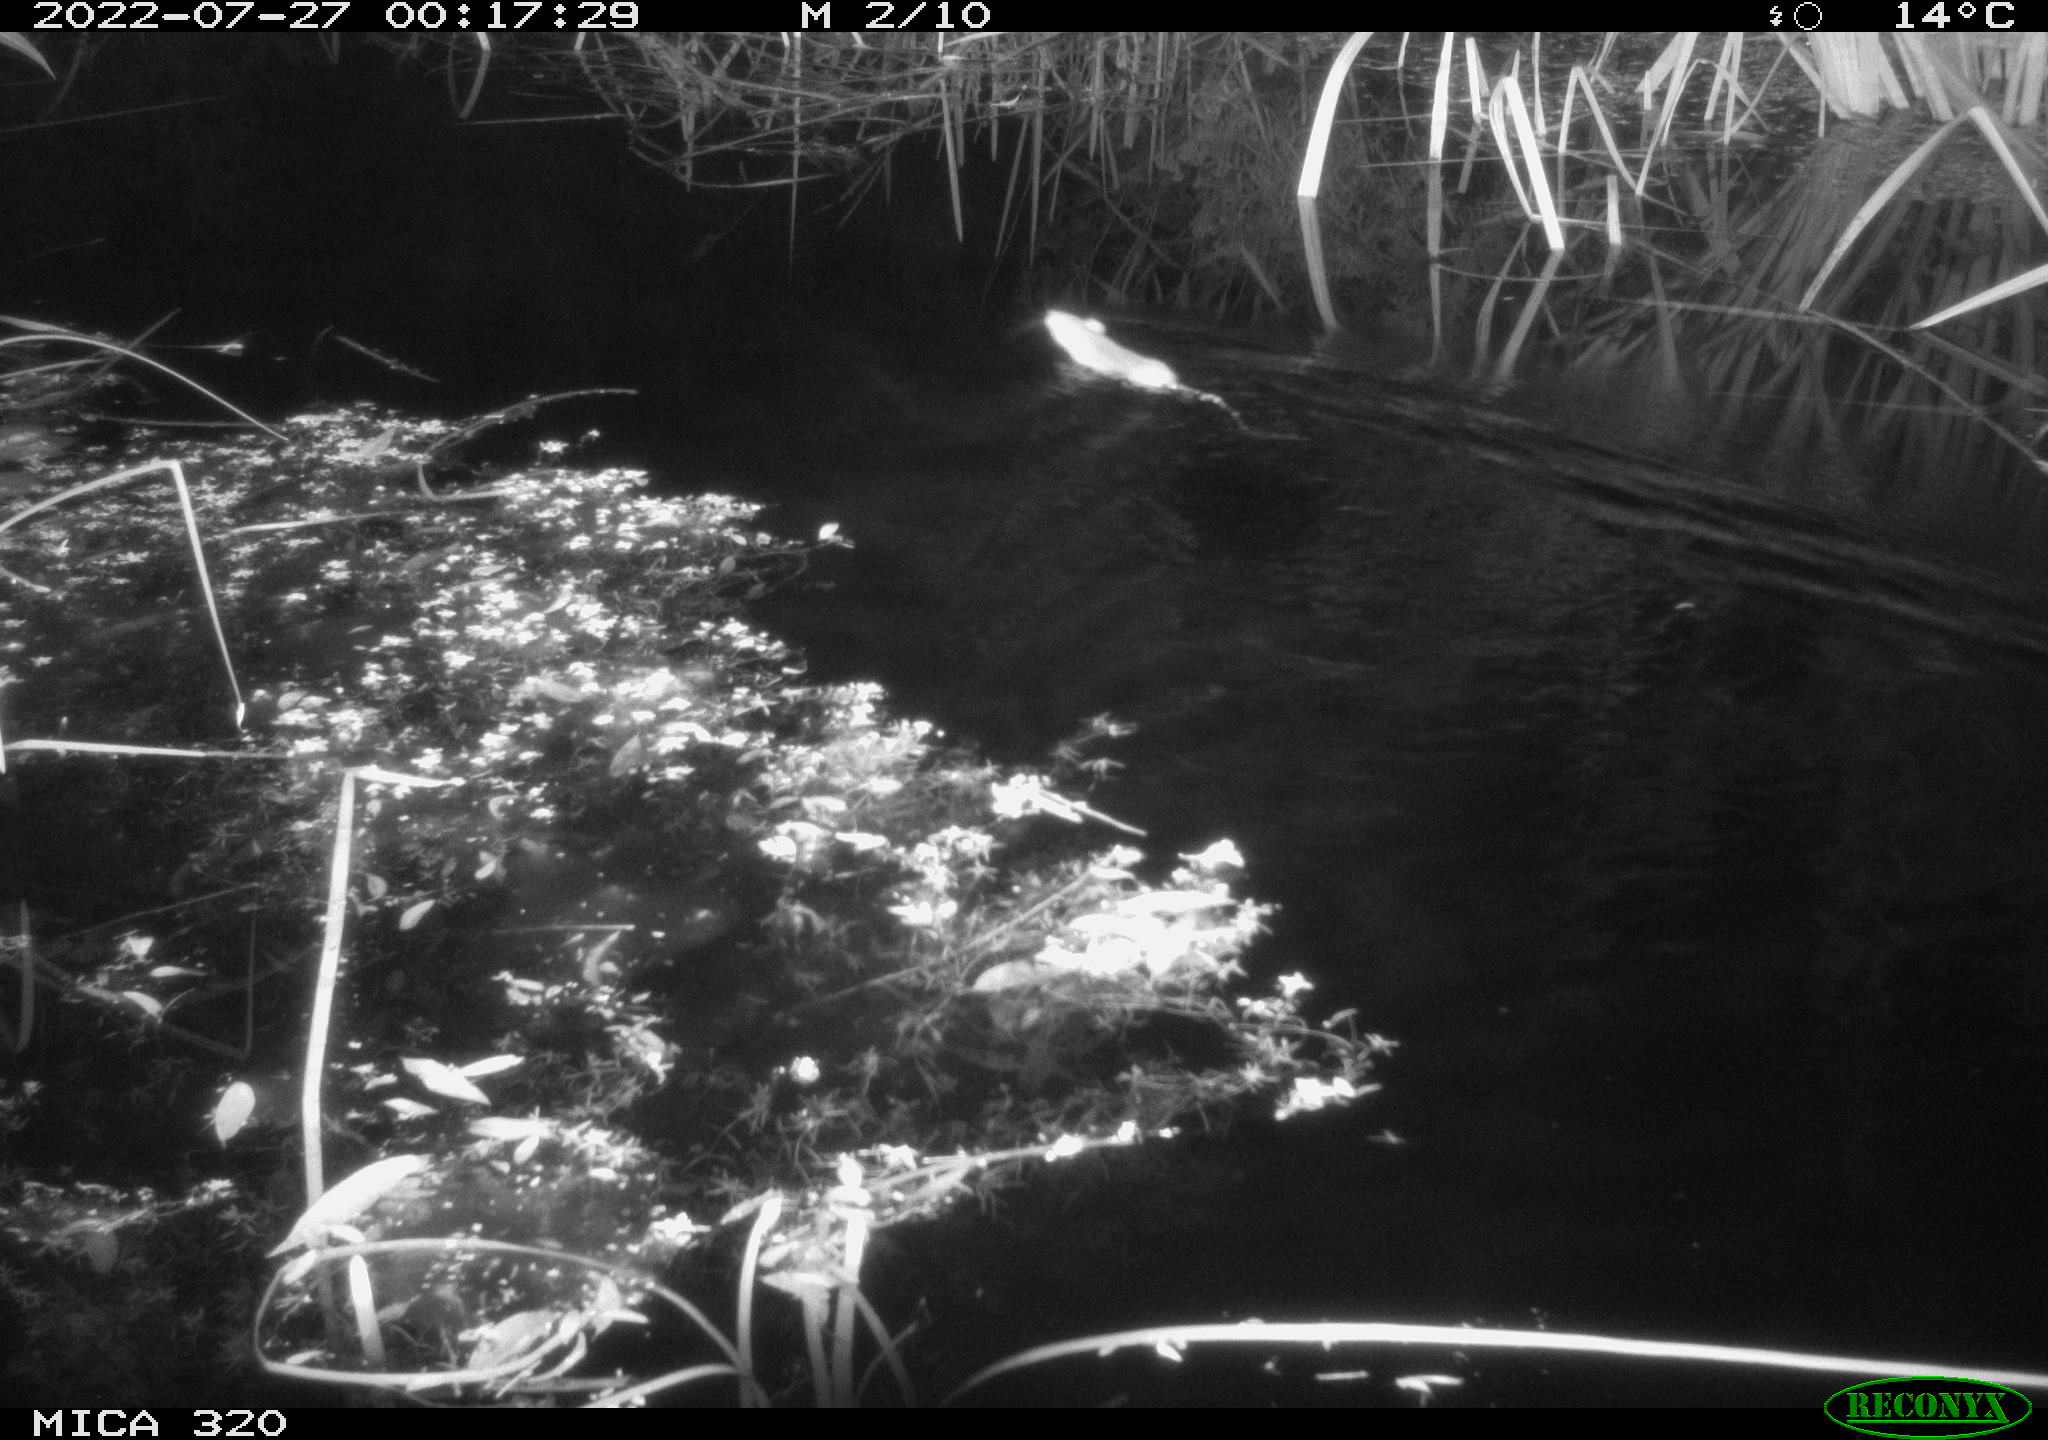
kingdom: Animalia
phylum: Chordata
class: Mammalia
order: Rodentia
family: Muridae
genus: Rattus
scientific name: Rattus norvegicus
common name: Brown rat
